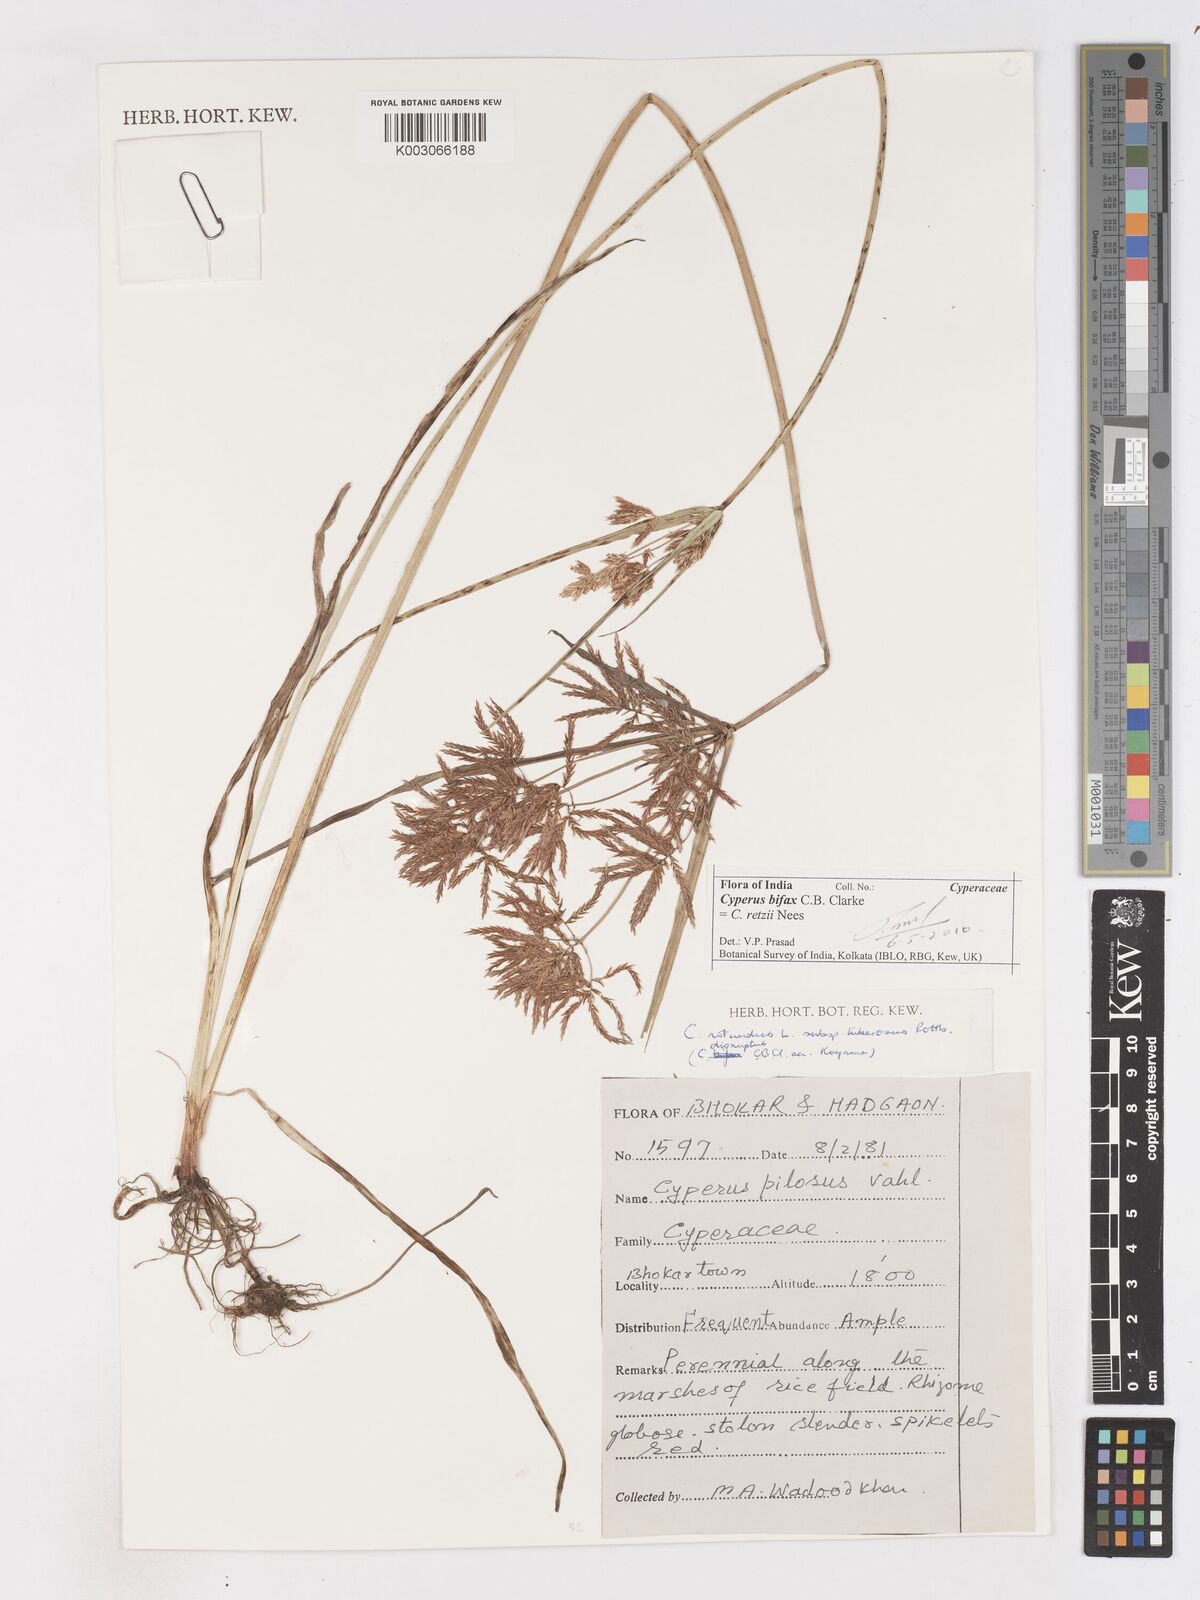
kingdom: Plantae
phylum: Tracheophyta
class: Liliopsida
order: Poales
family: Cyperaceae
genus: Cyperus
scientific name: Cyperus bifax
